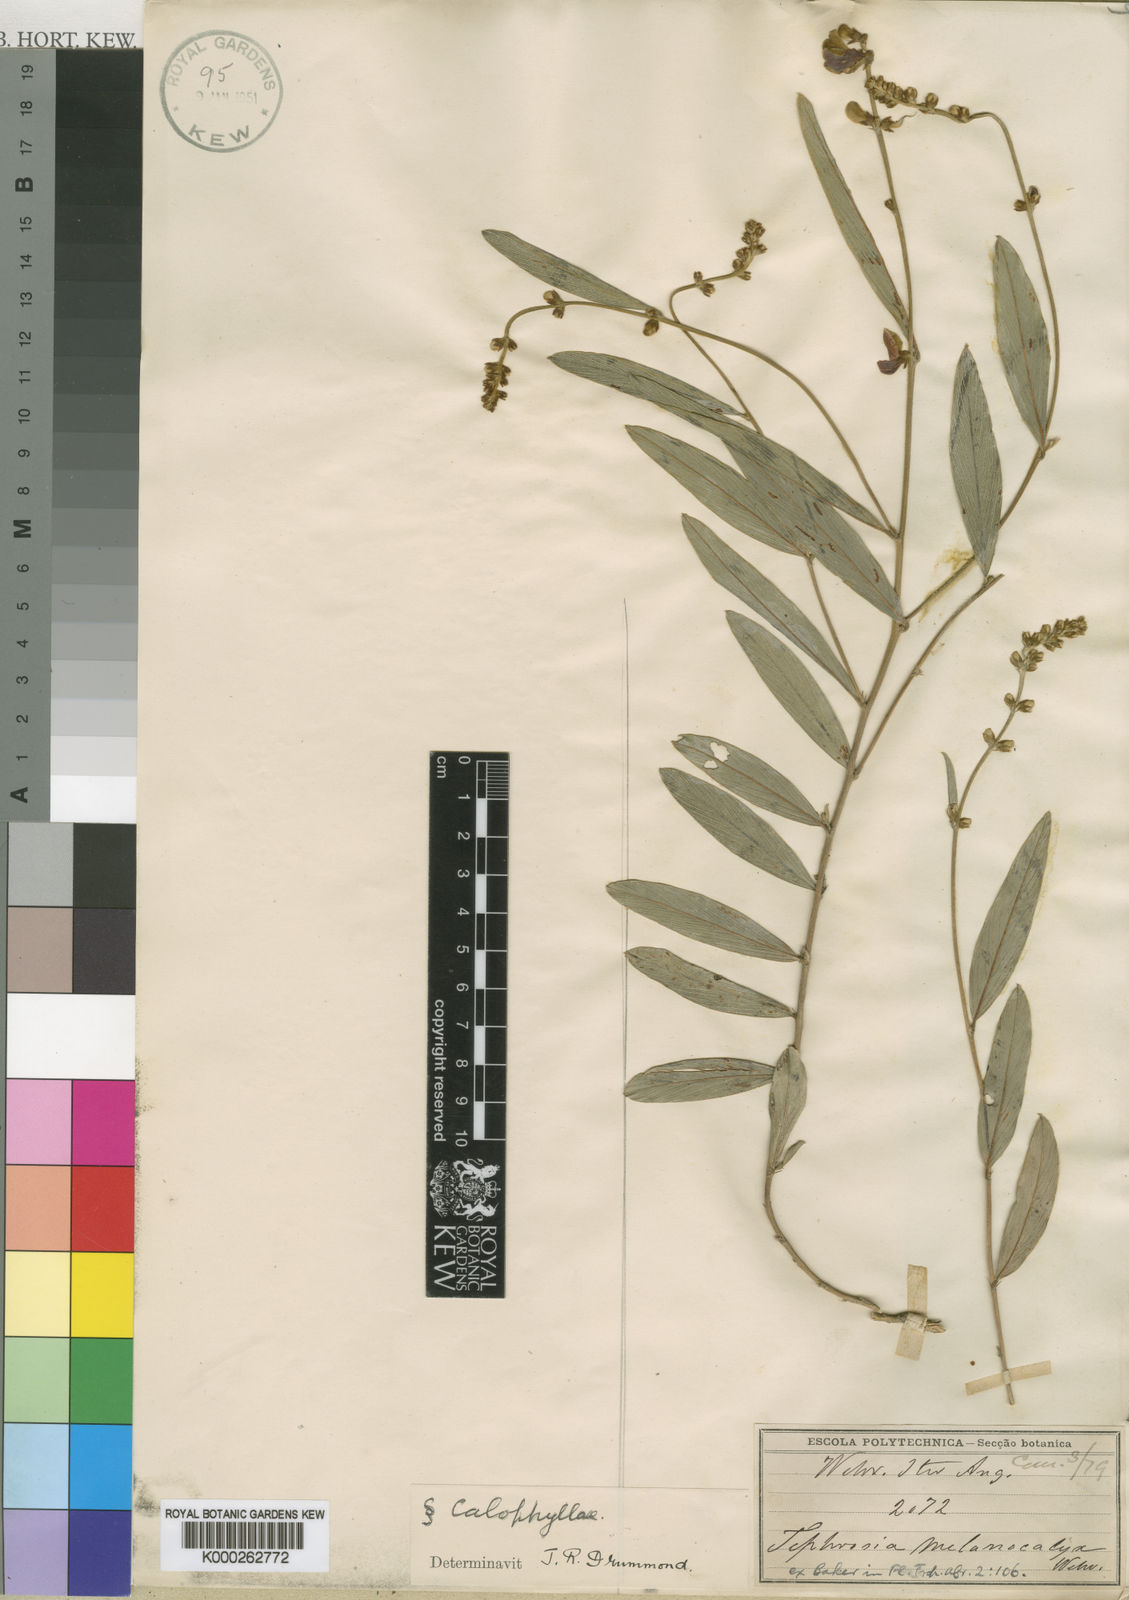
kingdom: Plantae
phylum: Tracheophyta
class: Magnoliopsida
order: Fabales
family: Fabaceae
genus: Tephrosia
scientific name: Tephrosia melanocalyx
